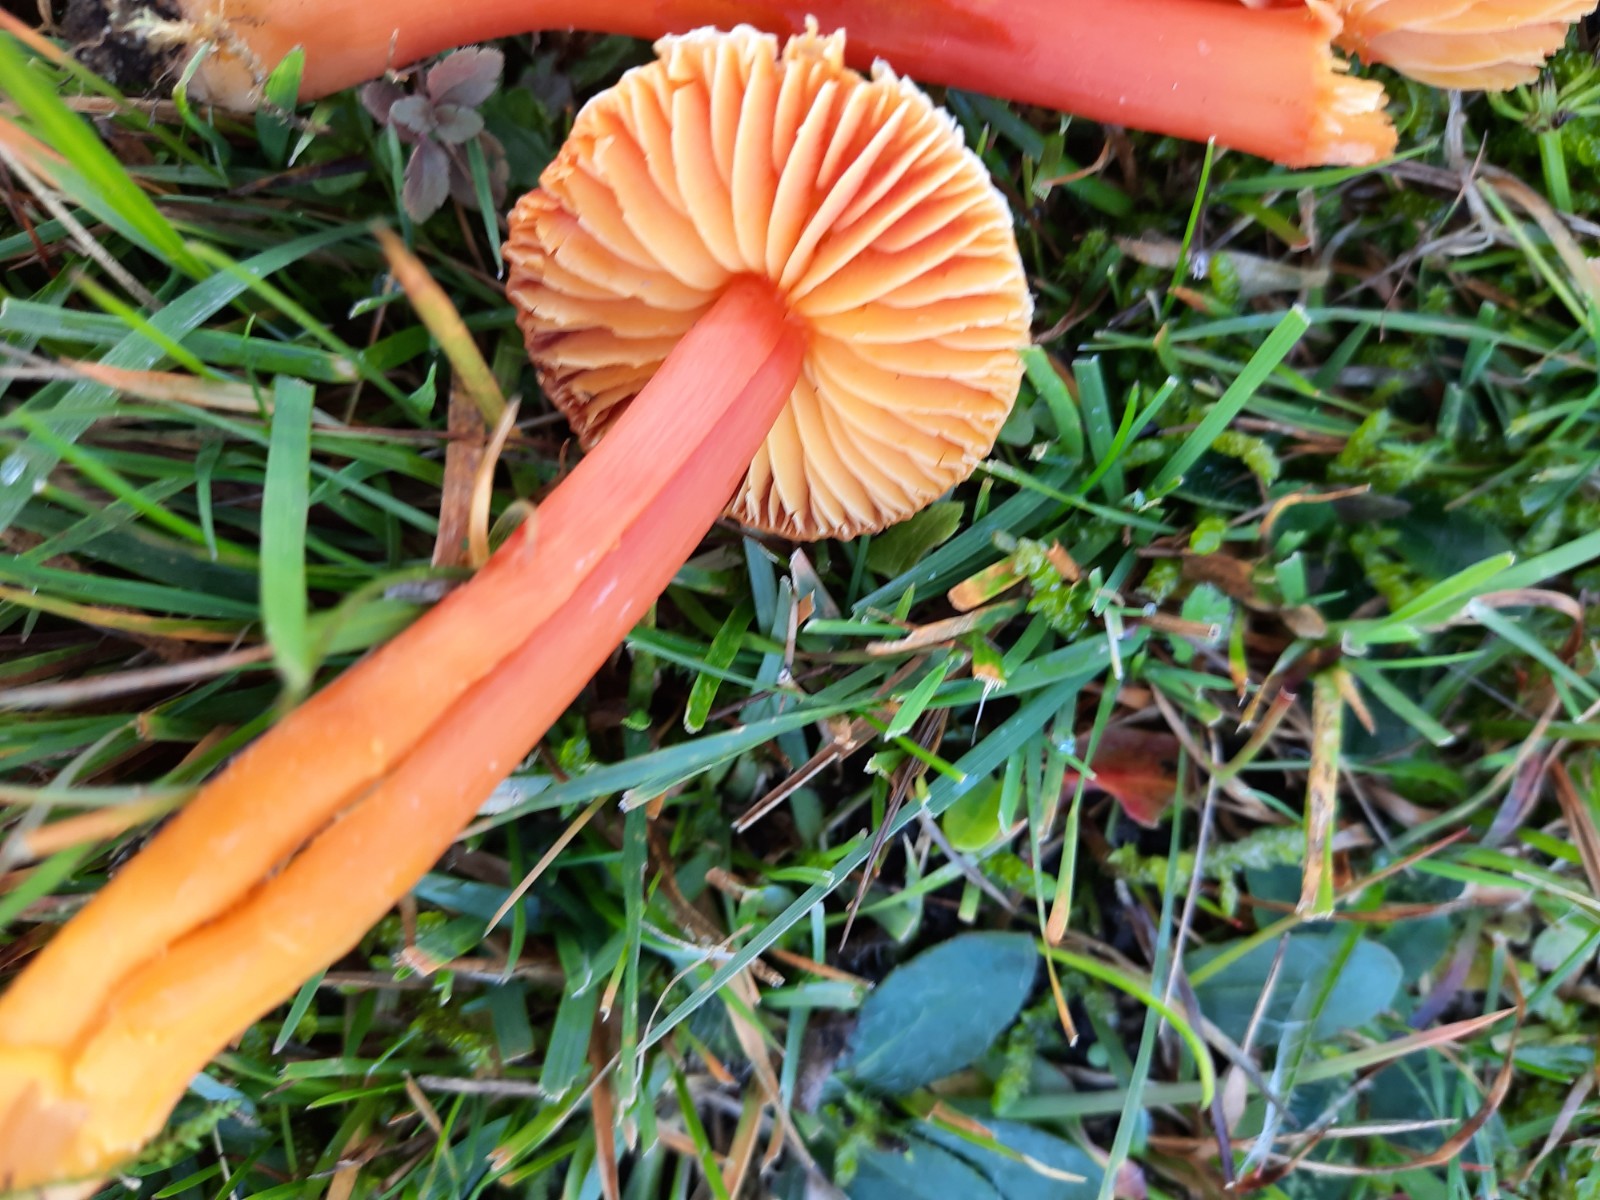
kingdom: Fungi
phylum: Basidiomycota
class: Agaricomycetes
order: Agaricales
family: Hygrophoraceae
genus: Hygrocybe
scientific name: Hygrocybe coccinea
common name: cinnober-vokshat
